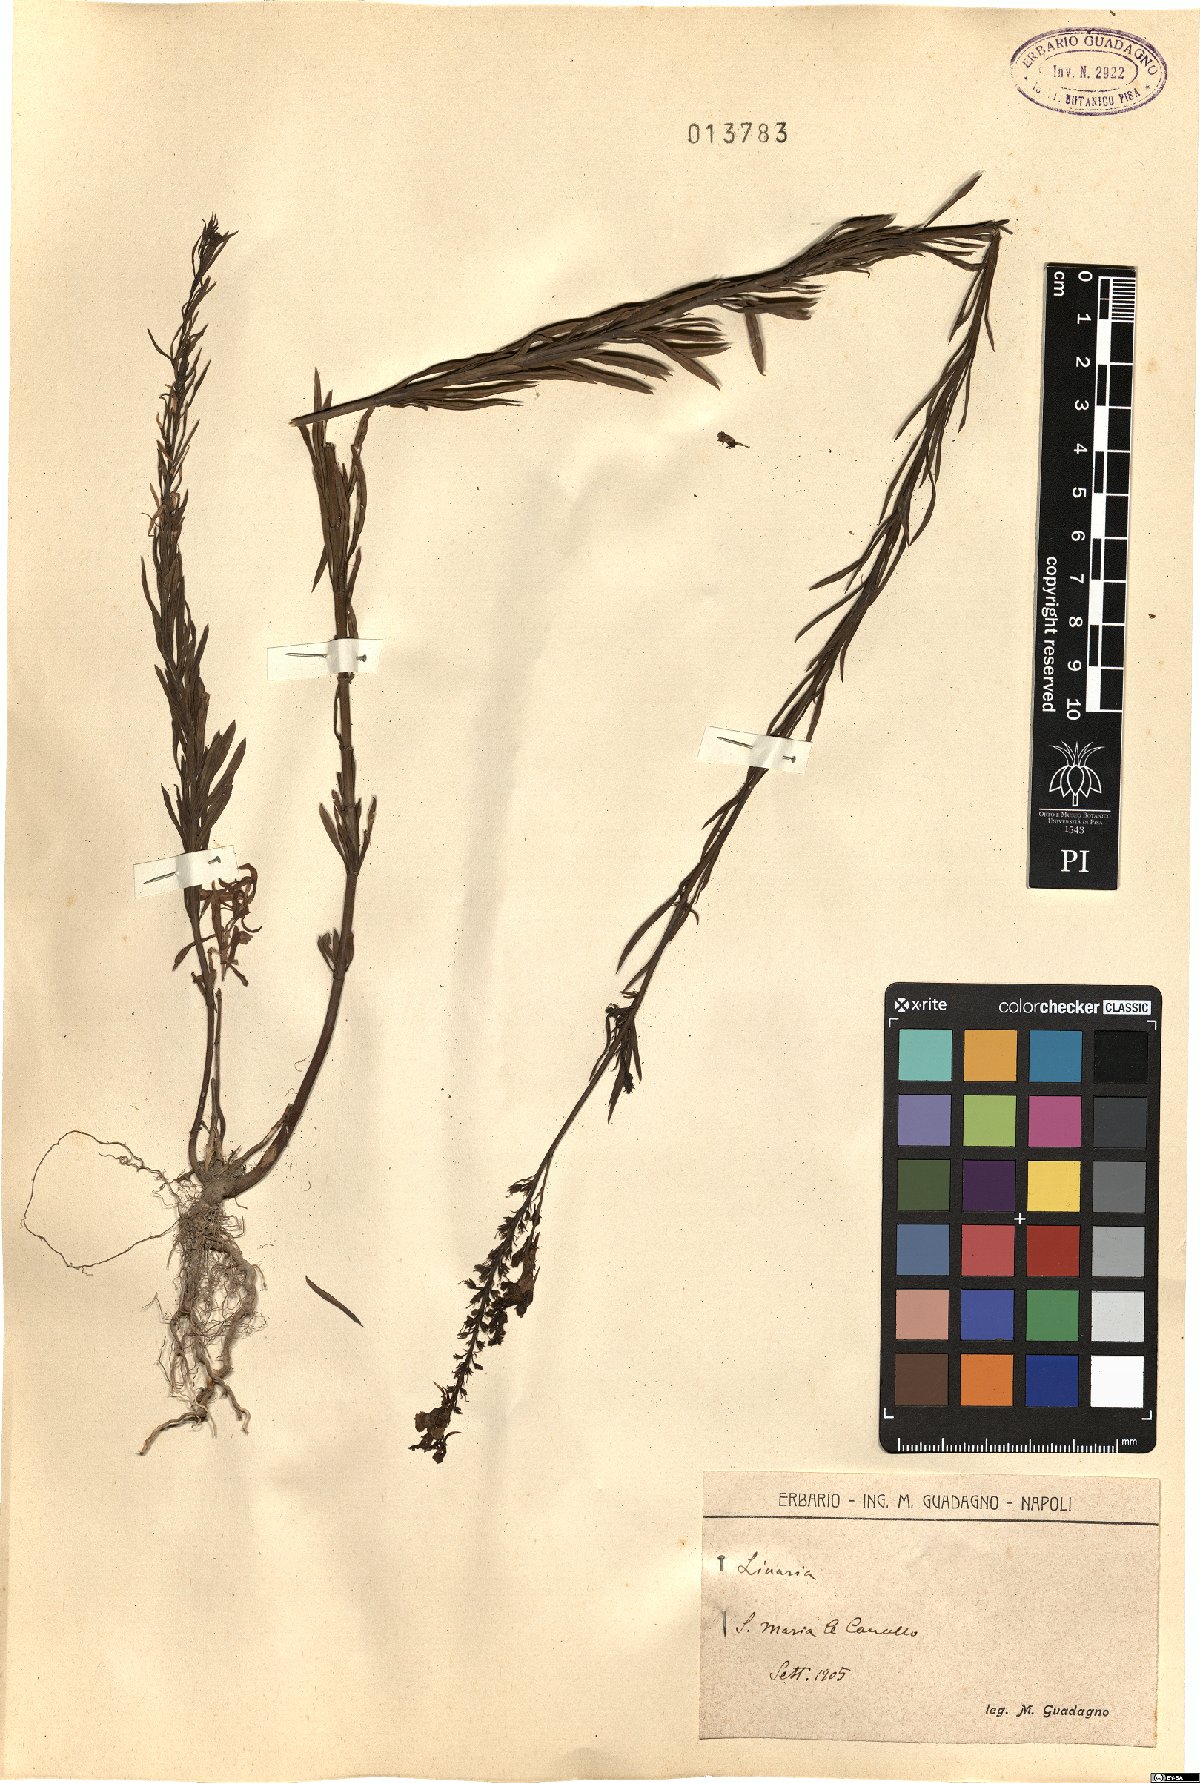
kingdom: Plantae
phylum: Tracheophyta
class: Magnoliopsida
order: Lamiales
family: Plantaginaceae
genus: Linaria
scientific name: Linaria
